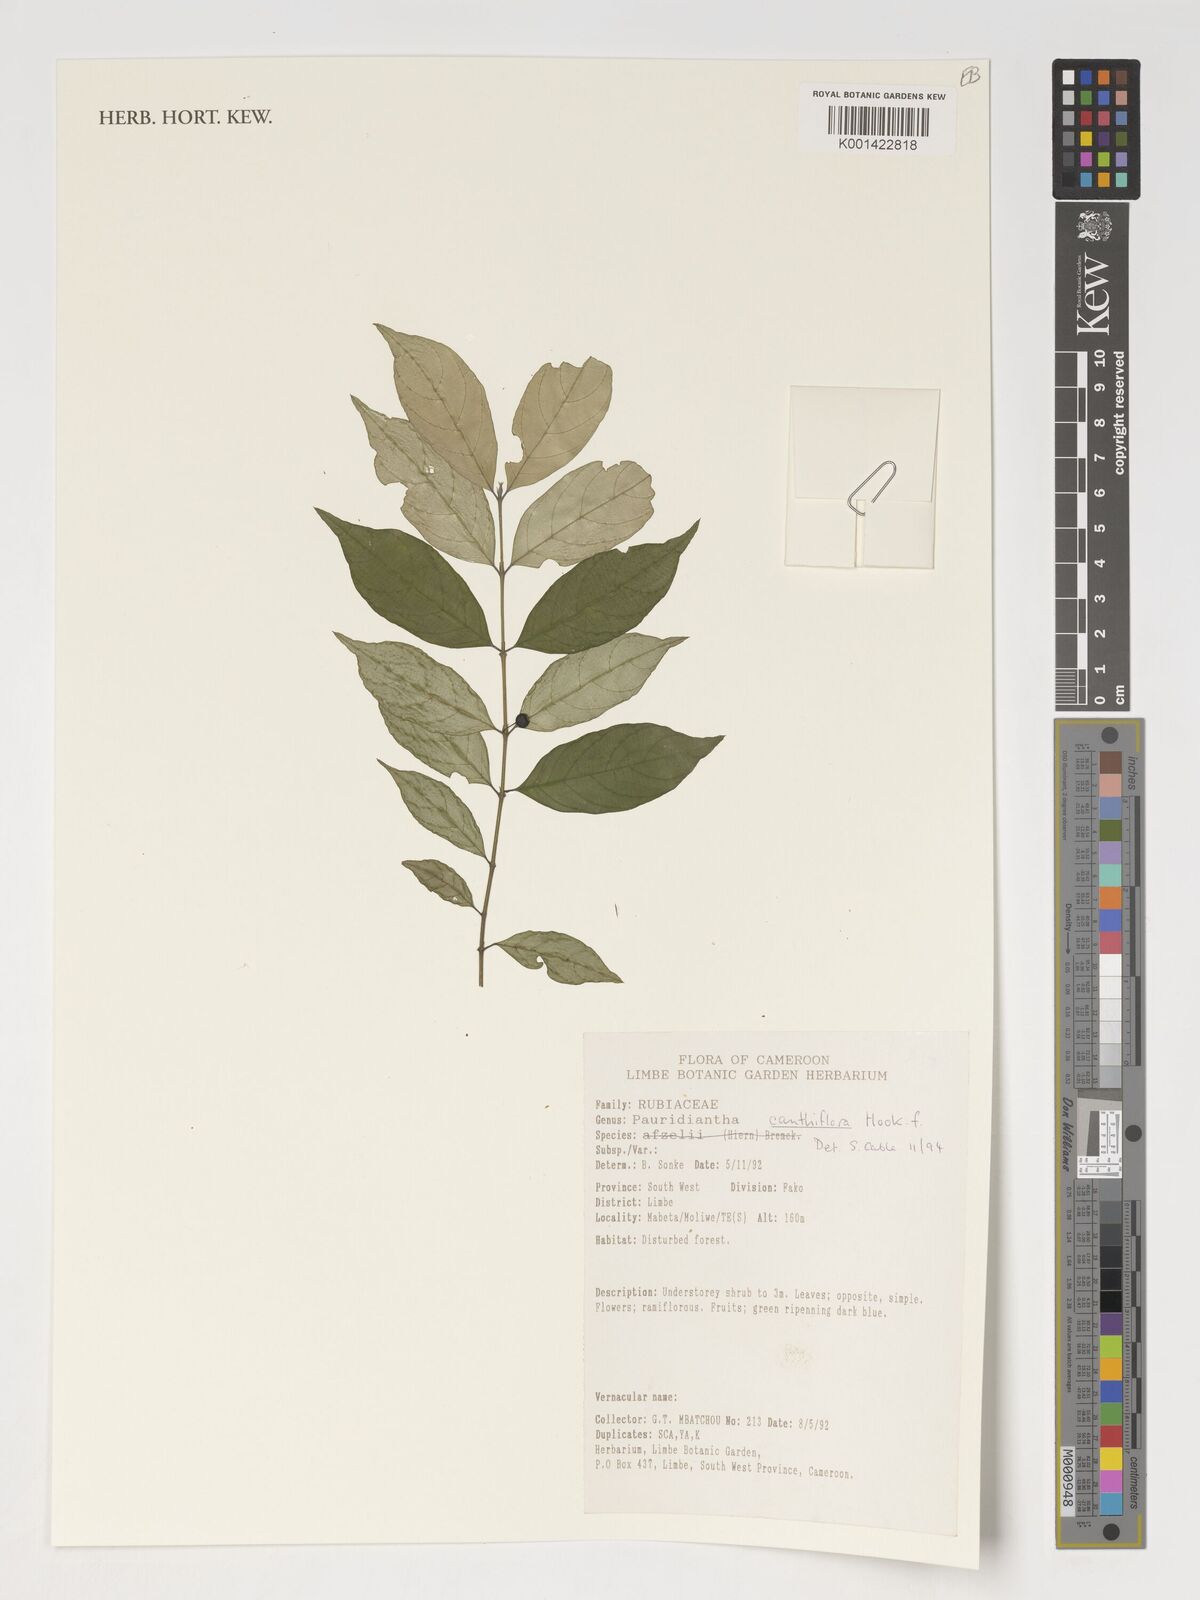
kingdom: Plantae
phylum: Tracheophyta
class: Magnoliopsida
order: Gentianales
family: Rubiaceae
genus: Pauridiantha
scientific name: Pauridiantha canthiiflora
